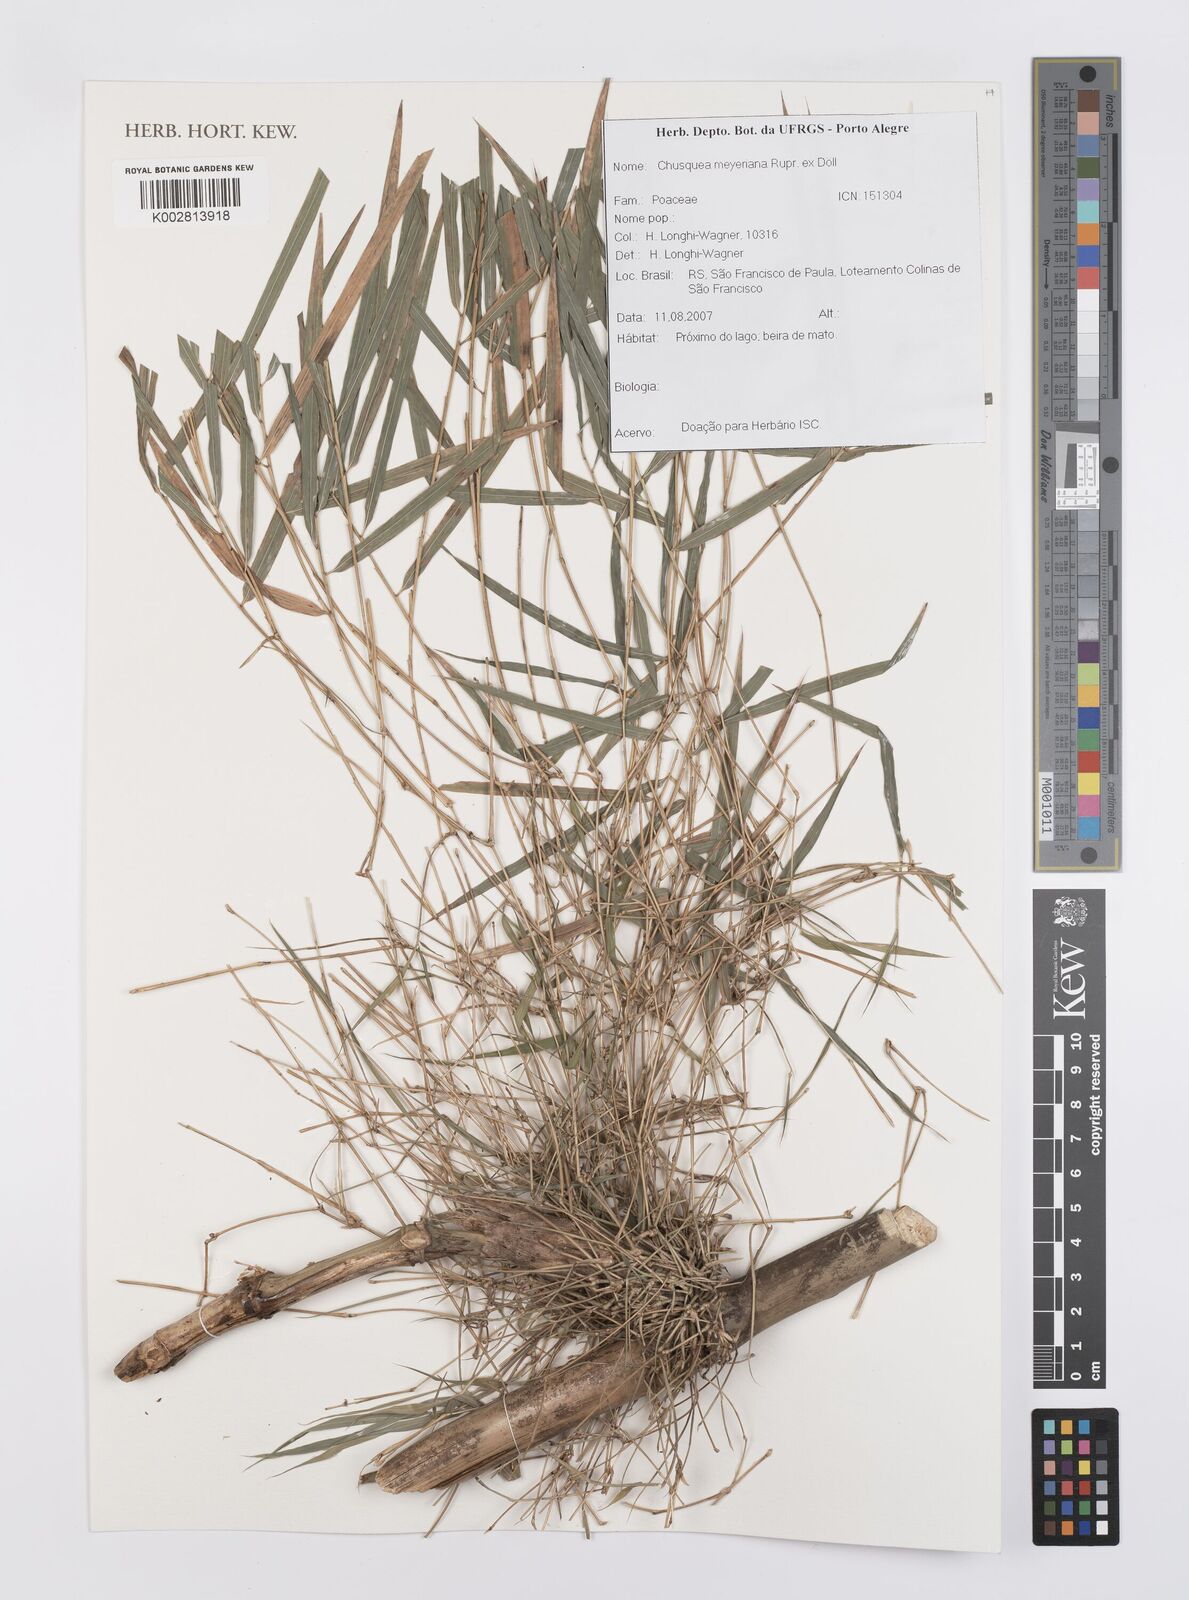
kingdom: Plantae
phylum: Tracheophyta
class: Liliopsida
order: Poales
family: Poaceae
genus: Chusquea
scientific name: Chusquea meyeriana
